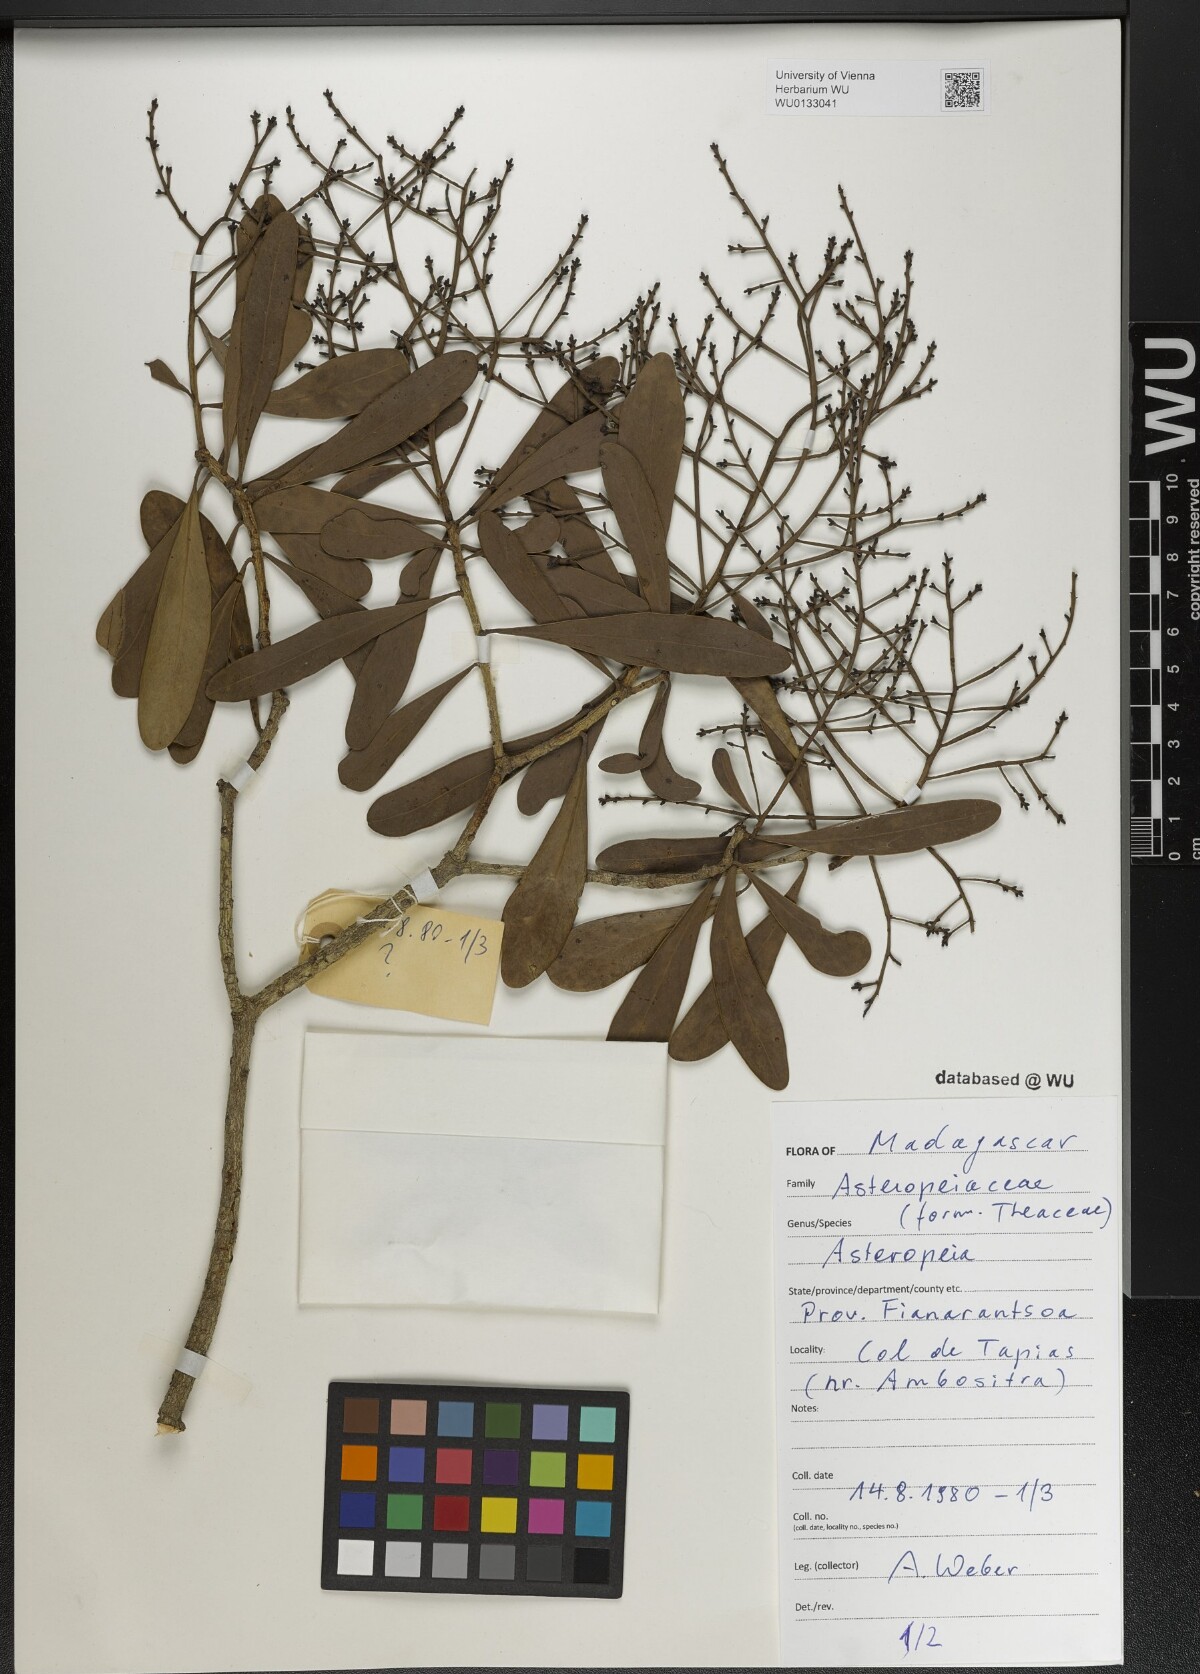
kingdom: Plantae
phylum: Tracheophyta
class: Magnoliopsida
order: Caryophyllales
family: Asteropeiaceae
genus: Asteropeia
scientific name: Asteropeia
